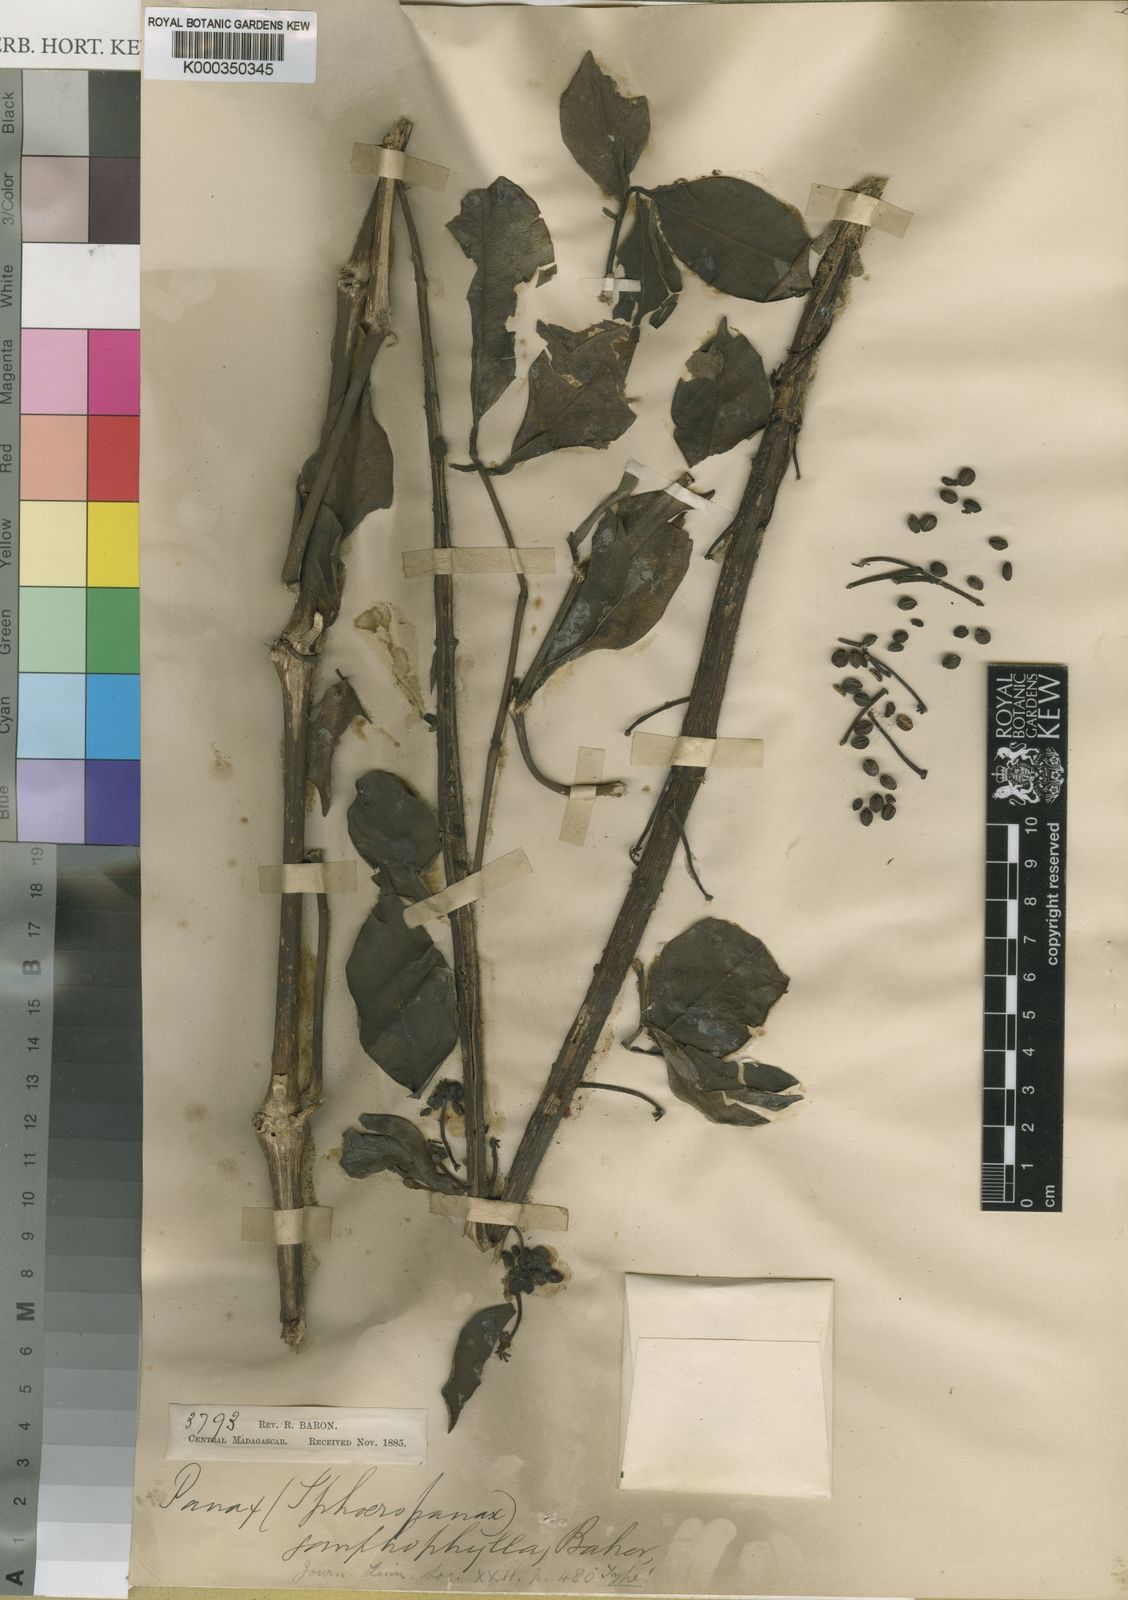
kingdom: Plantae
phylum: Tracheophyta
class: Magnoliopsida
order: Apiales
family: Araliaceae
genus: Polyscias
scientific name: Polyscias amplifolia
